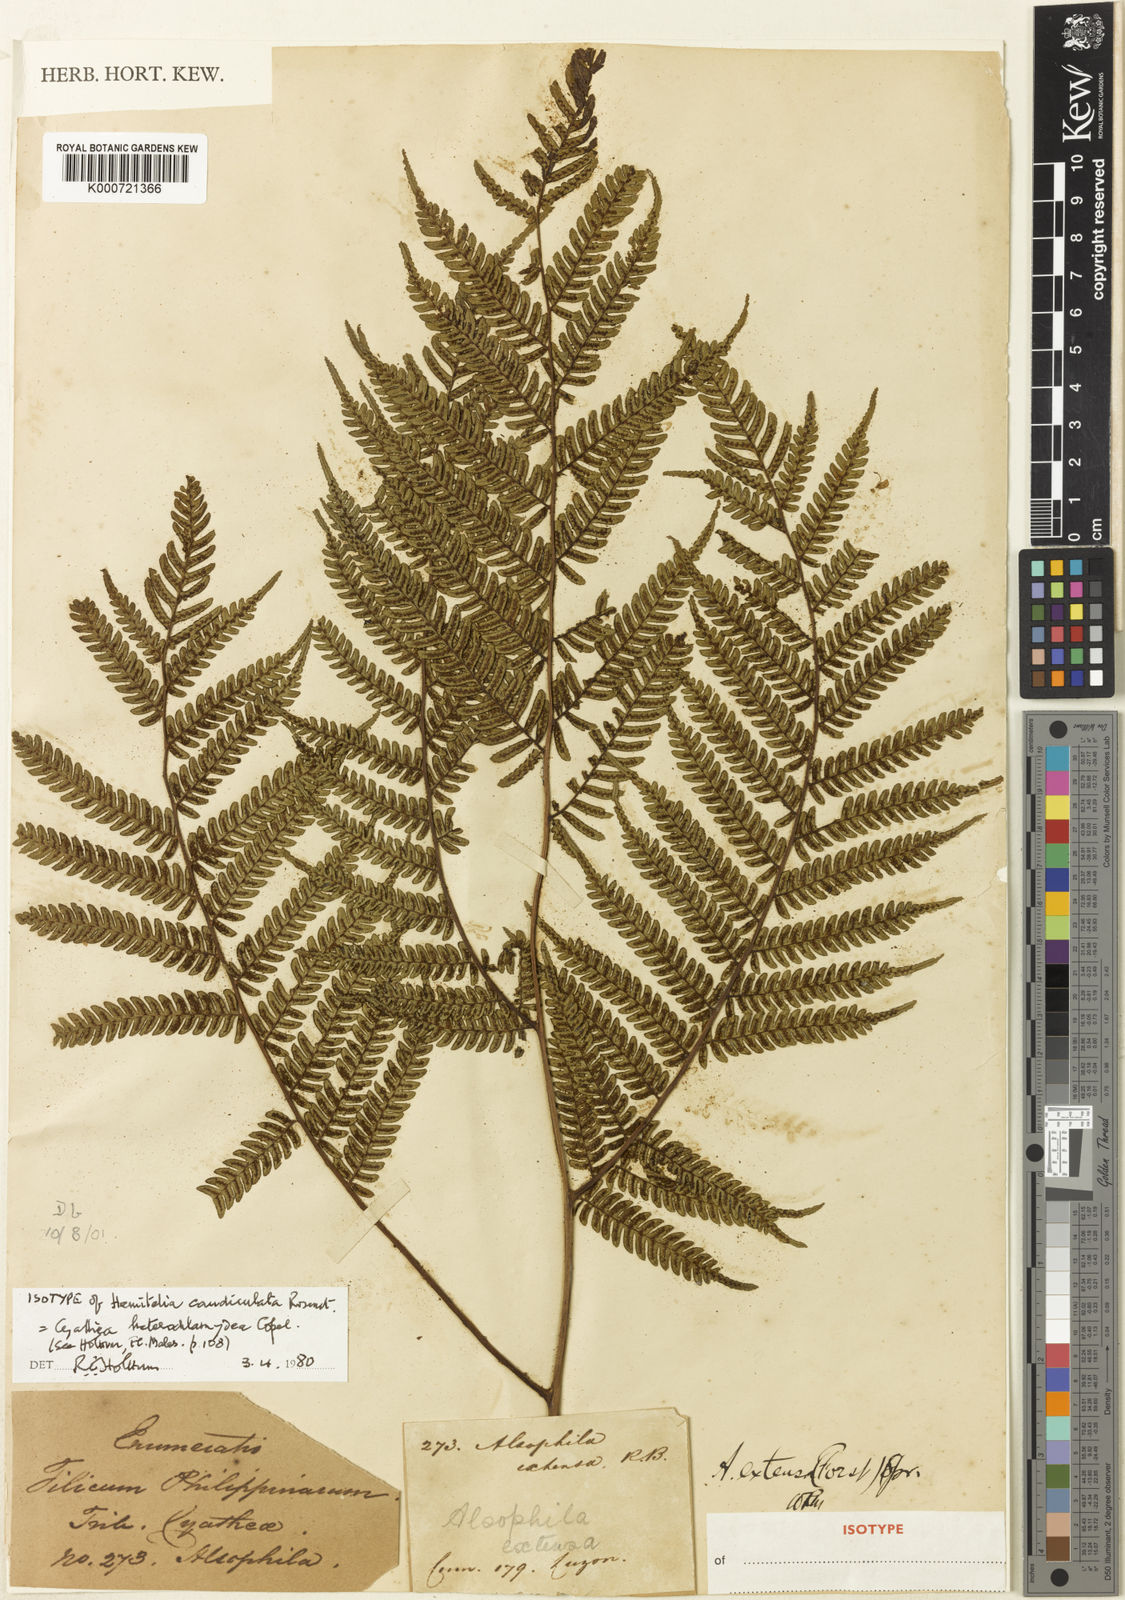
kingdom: Plantae
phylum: Tracheophyta
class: Polypodiopsida
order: Cyatheales
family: Cyatheaceae
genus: Alsophila
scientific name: Alsophila heterochlamydea
